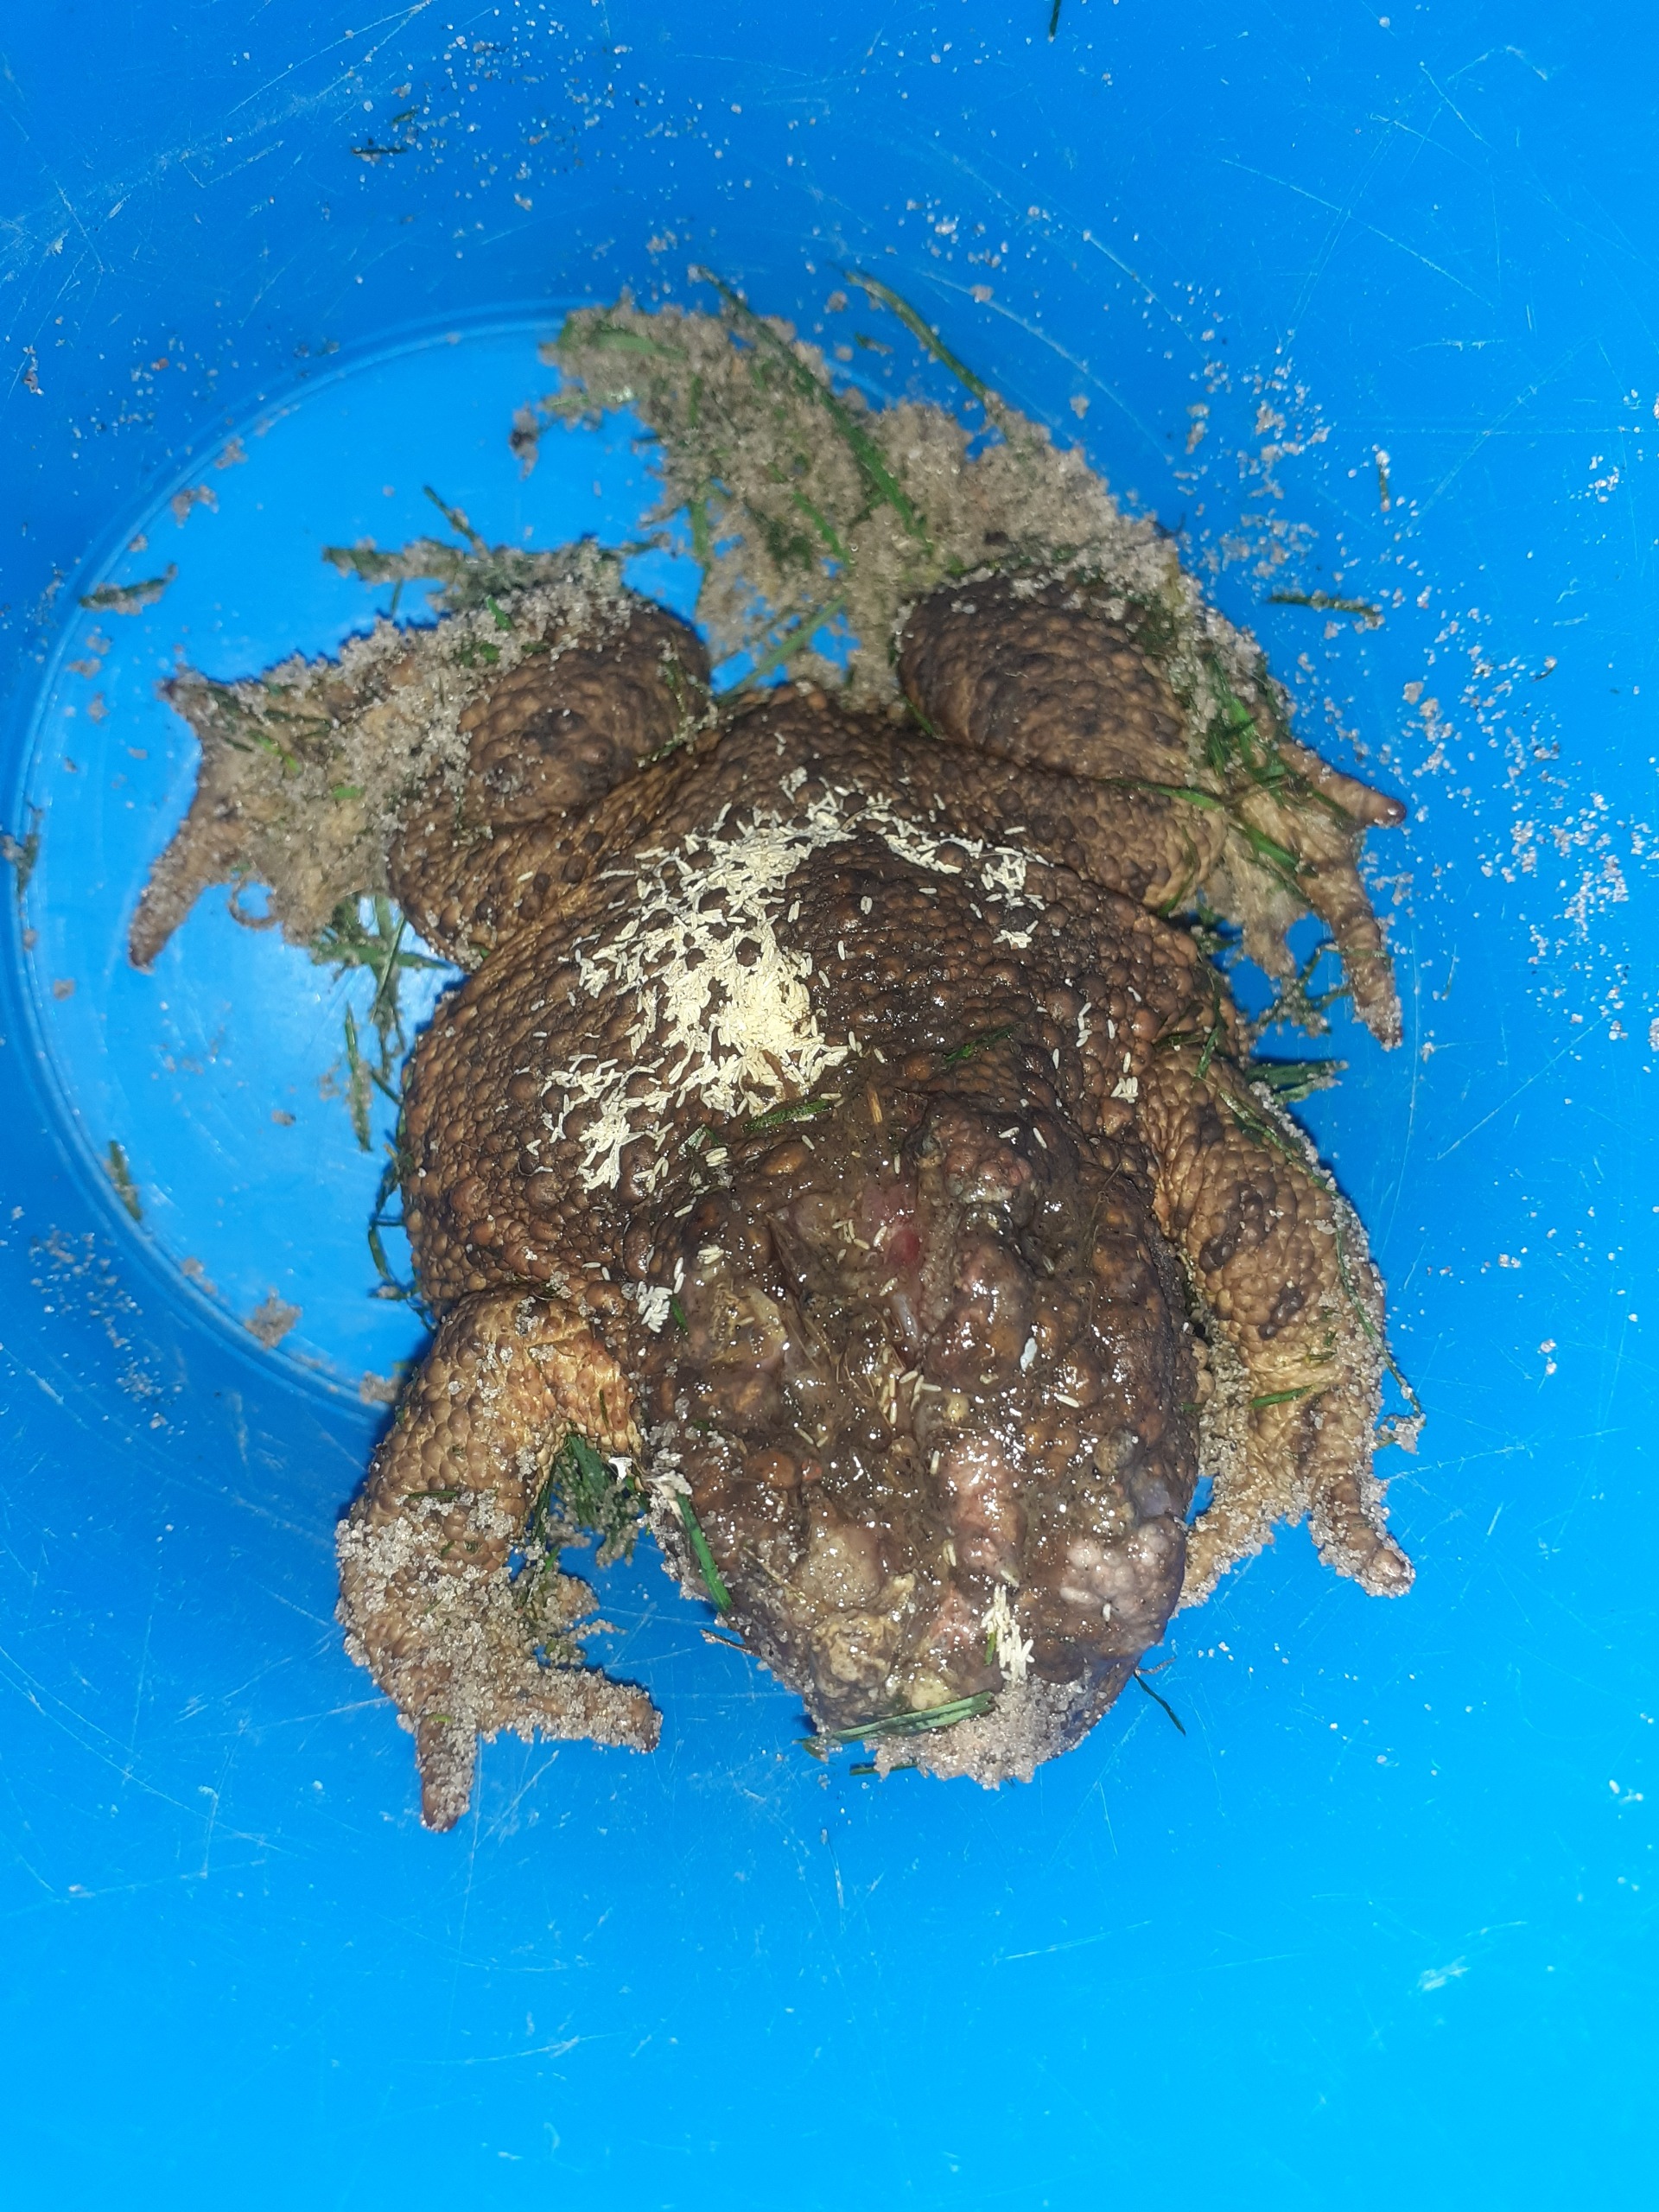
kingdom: Animalia
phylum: Chordata
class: Amphibia
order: Anura
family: Bufonidae
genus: Bufo
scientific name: Bufo bufo
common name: Skrubtudse
